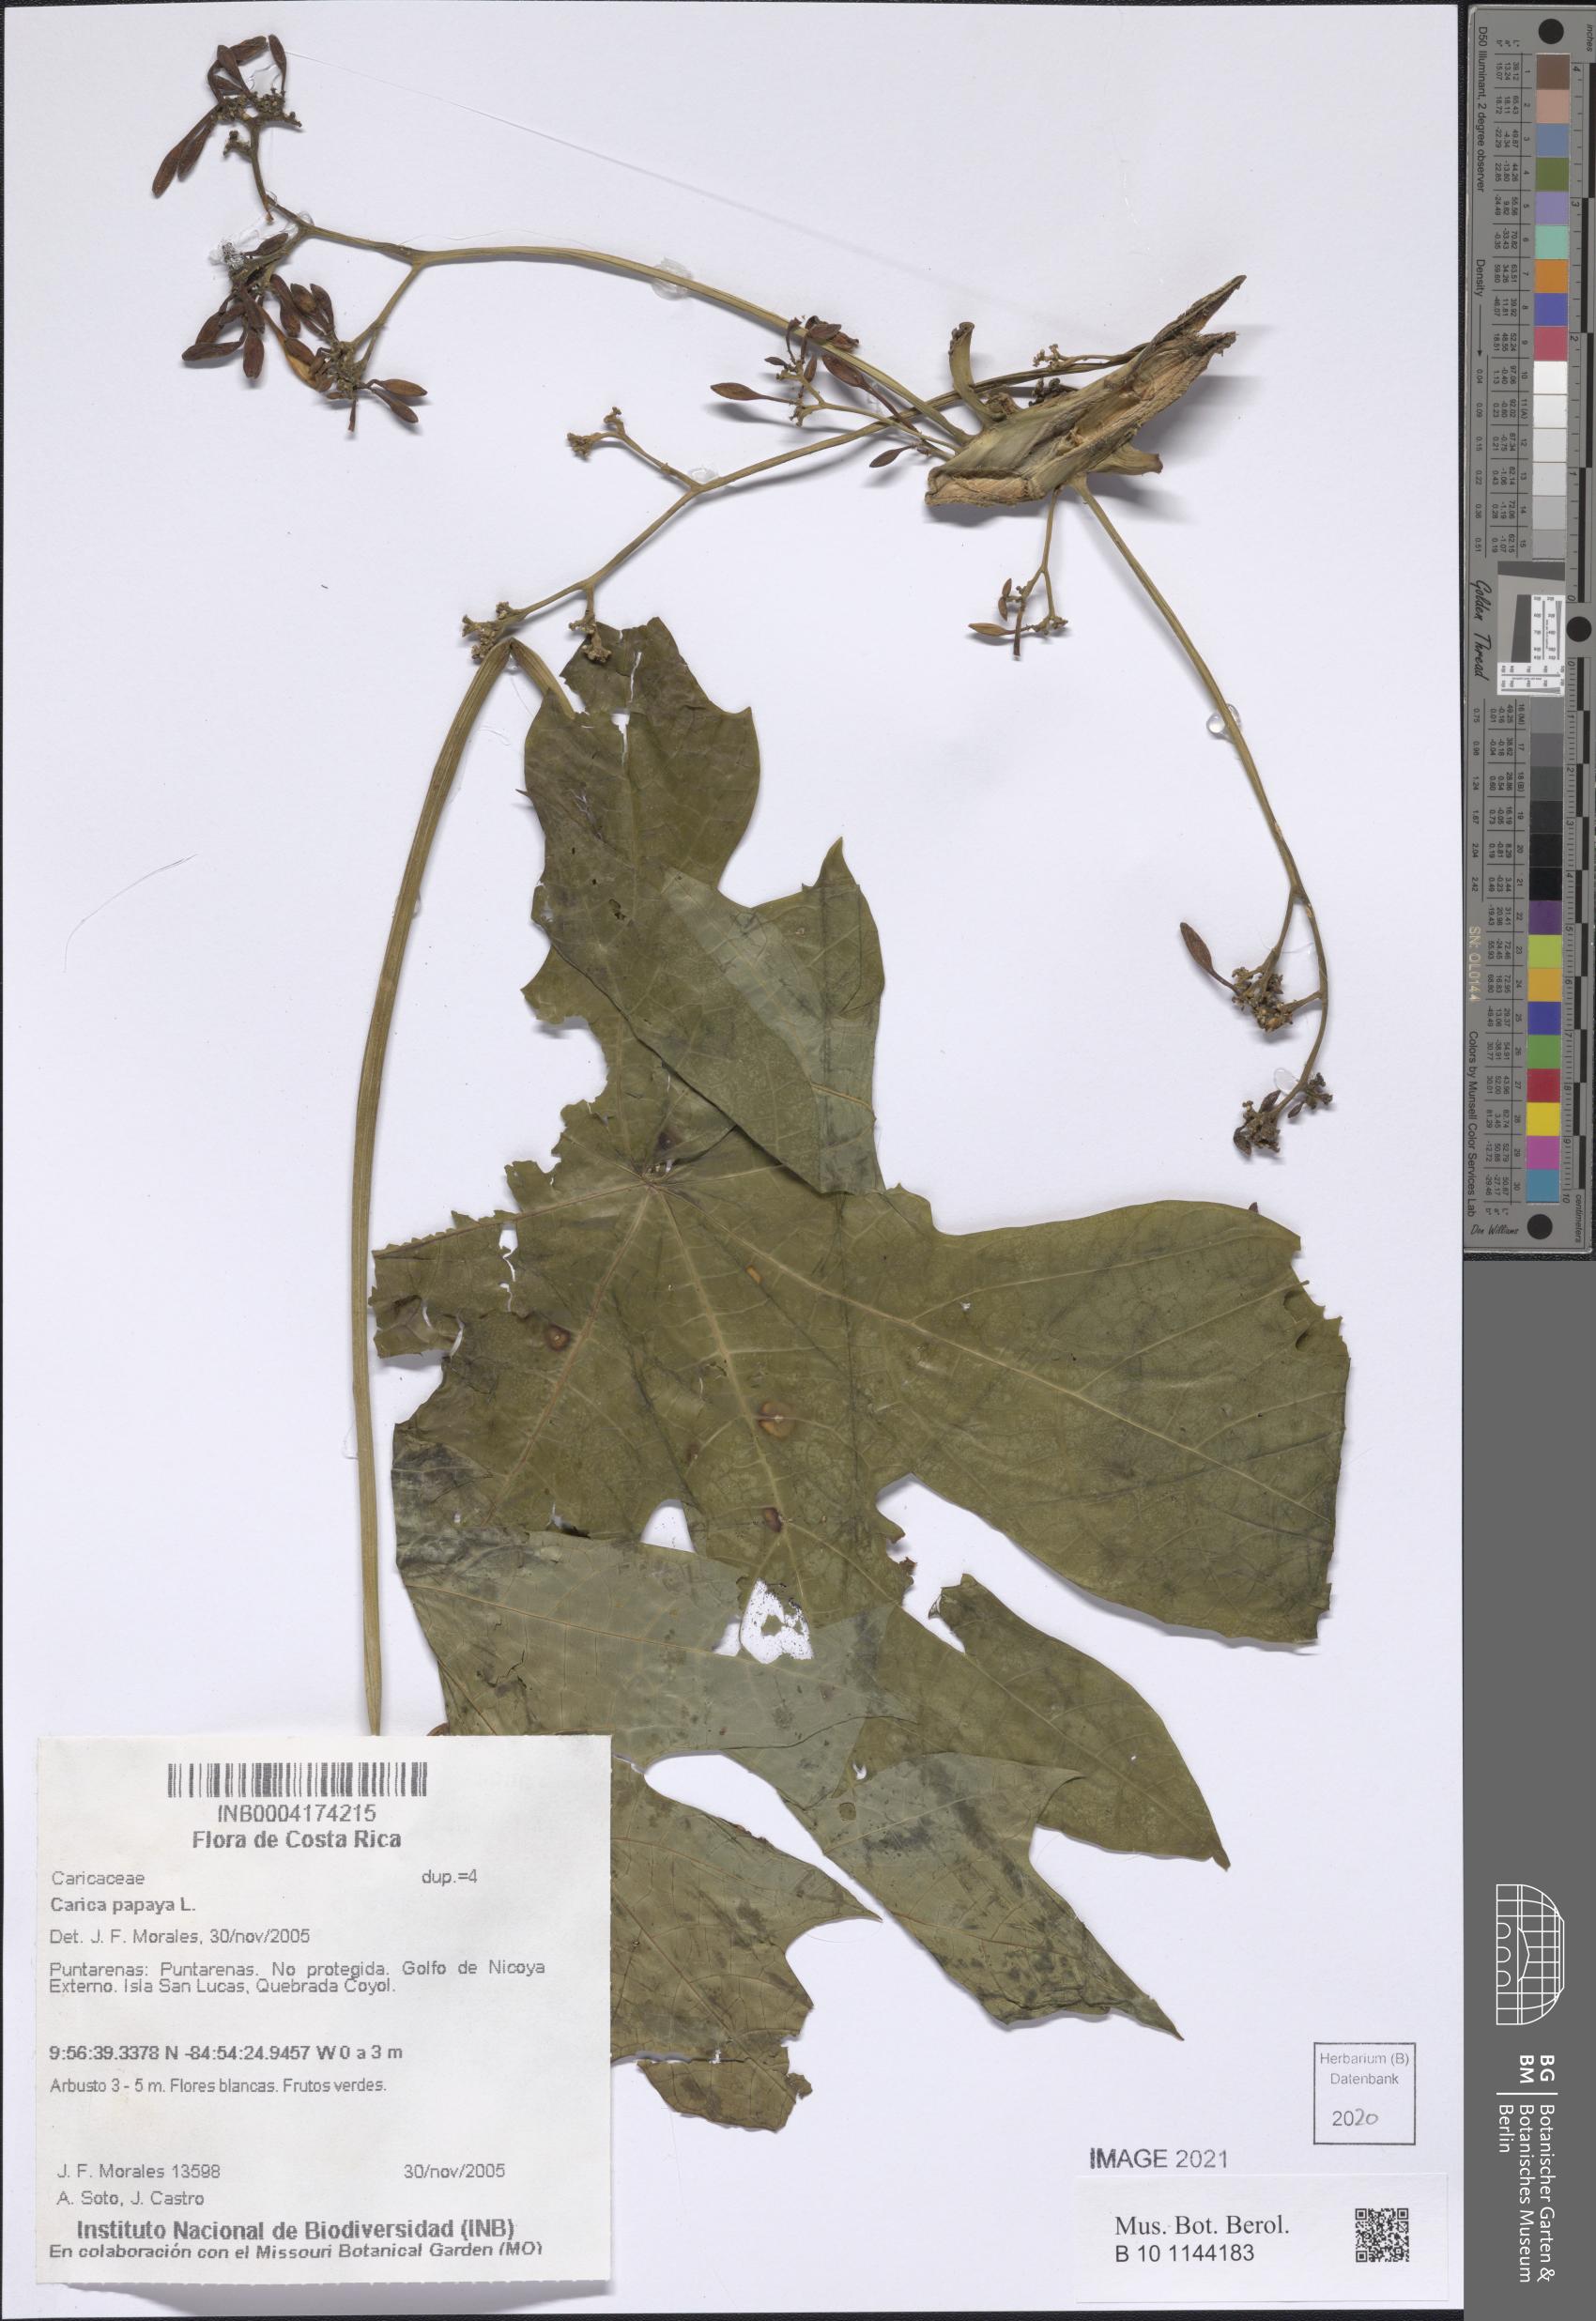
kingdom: Plantae
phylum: Tracheophyta
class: Magnoliopsida
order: Brassicales
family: Caricaceae
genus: Carica
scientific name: Carica papaya
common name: Papaya
